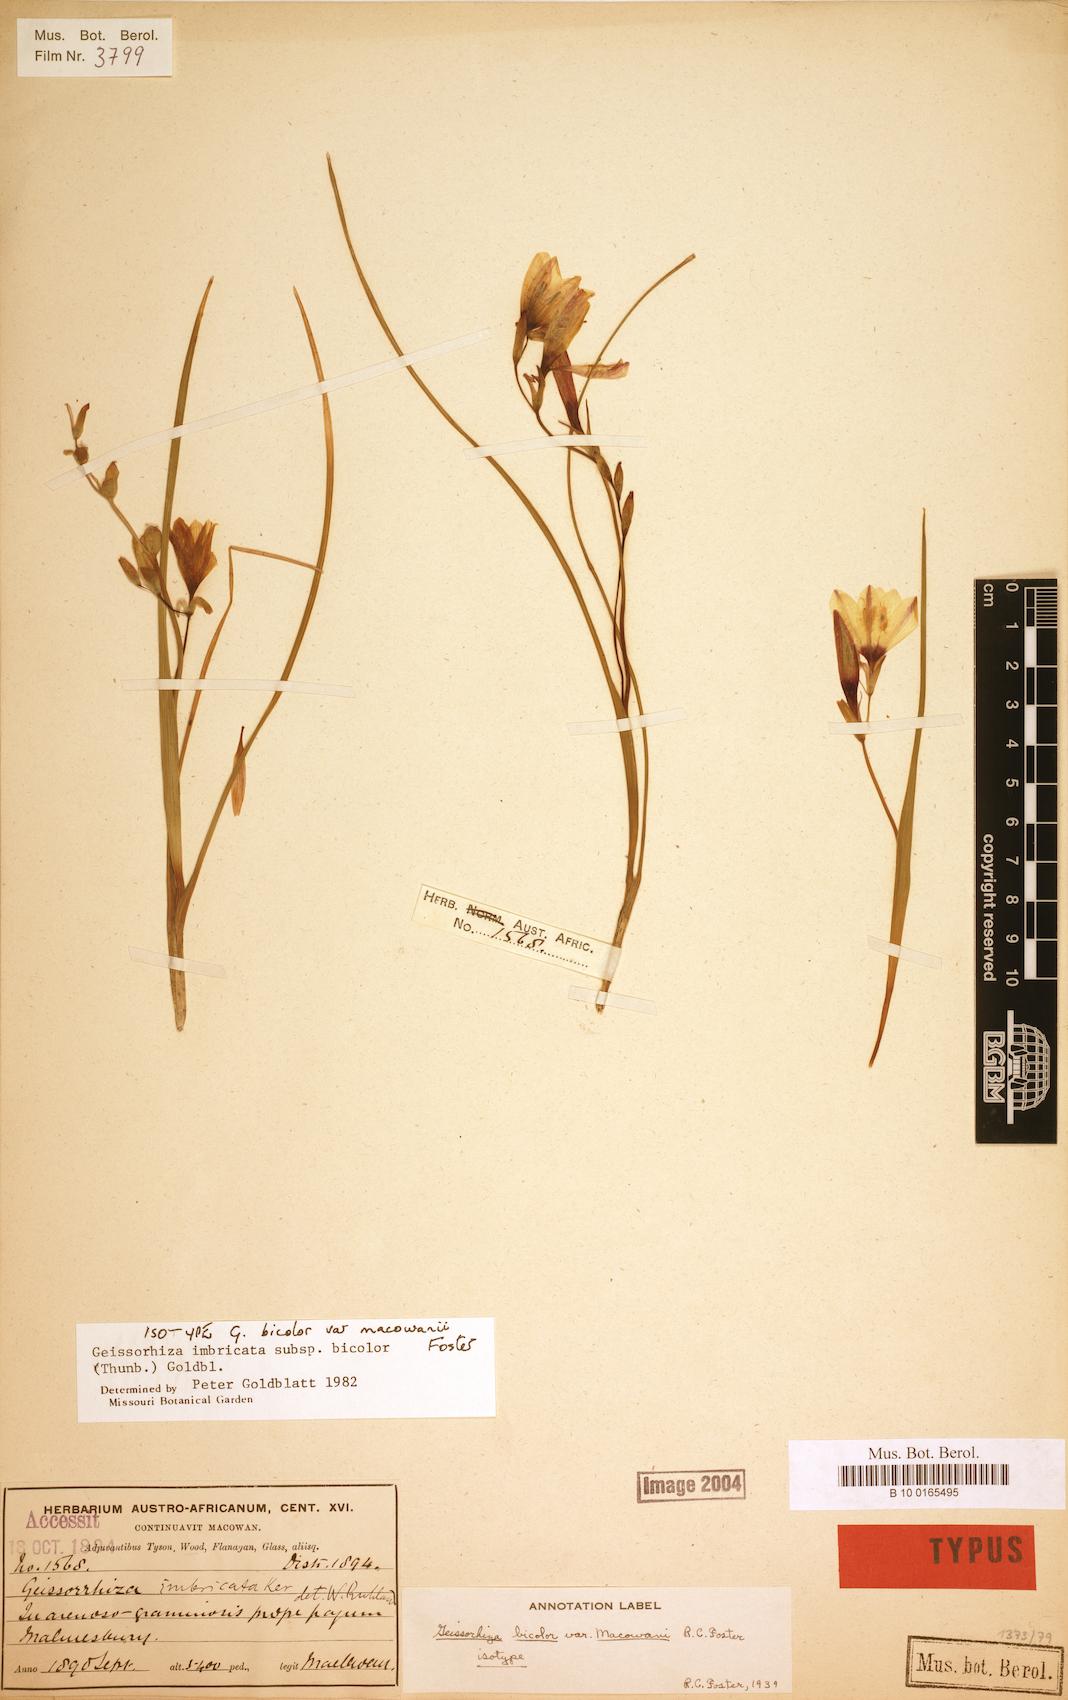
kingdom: Plantae
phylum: Tracheophyta
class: Liliopsida
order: Asparagales
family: Iridaceae
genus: Geissorhiza
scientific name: Geissorhiza imbricata
